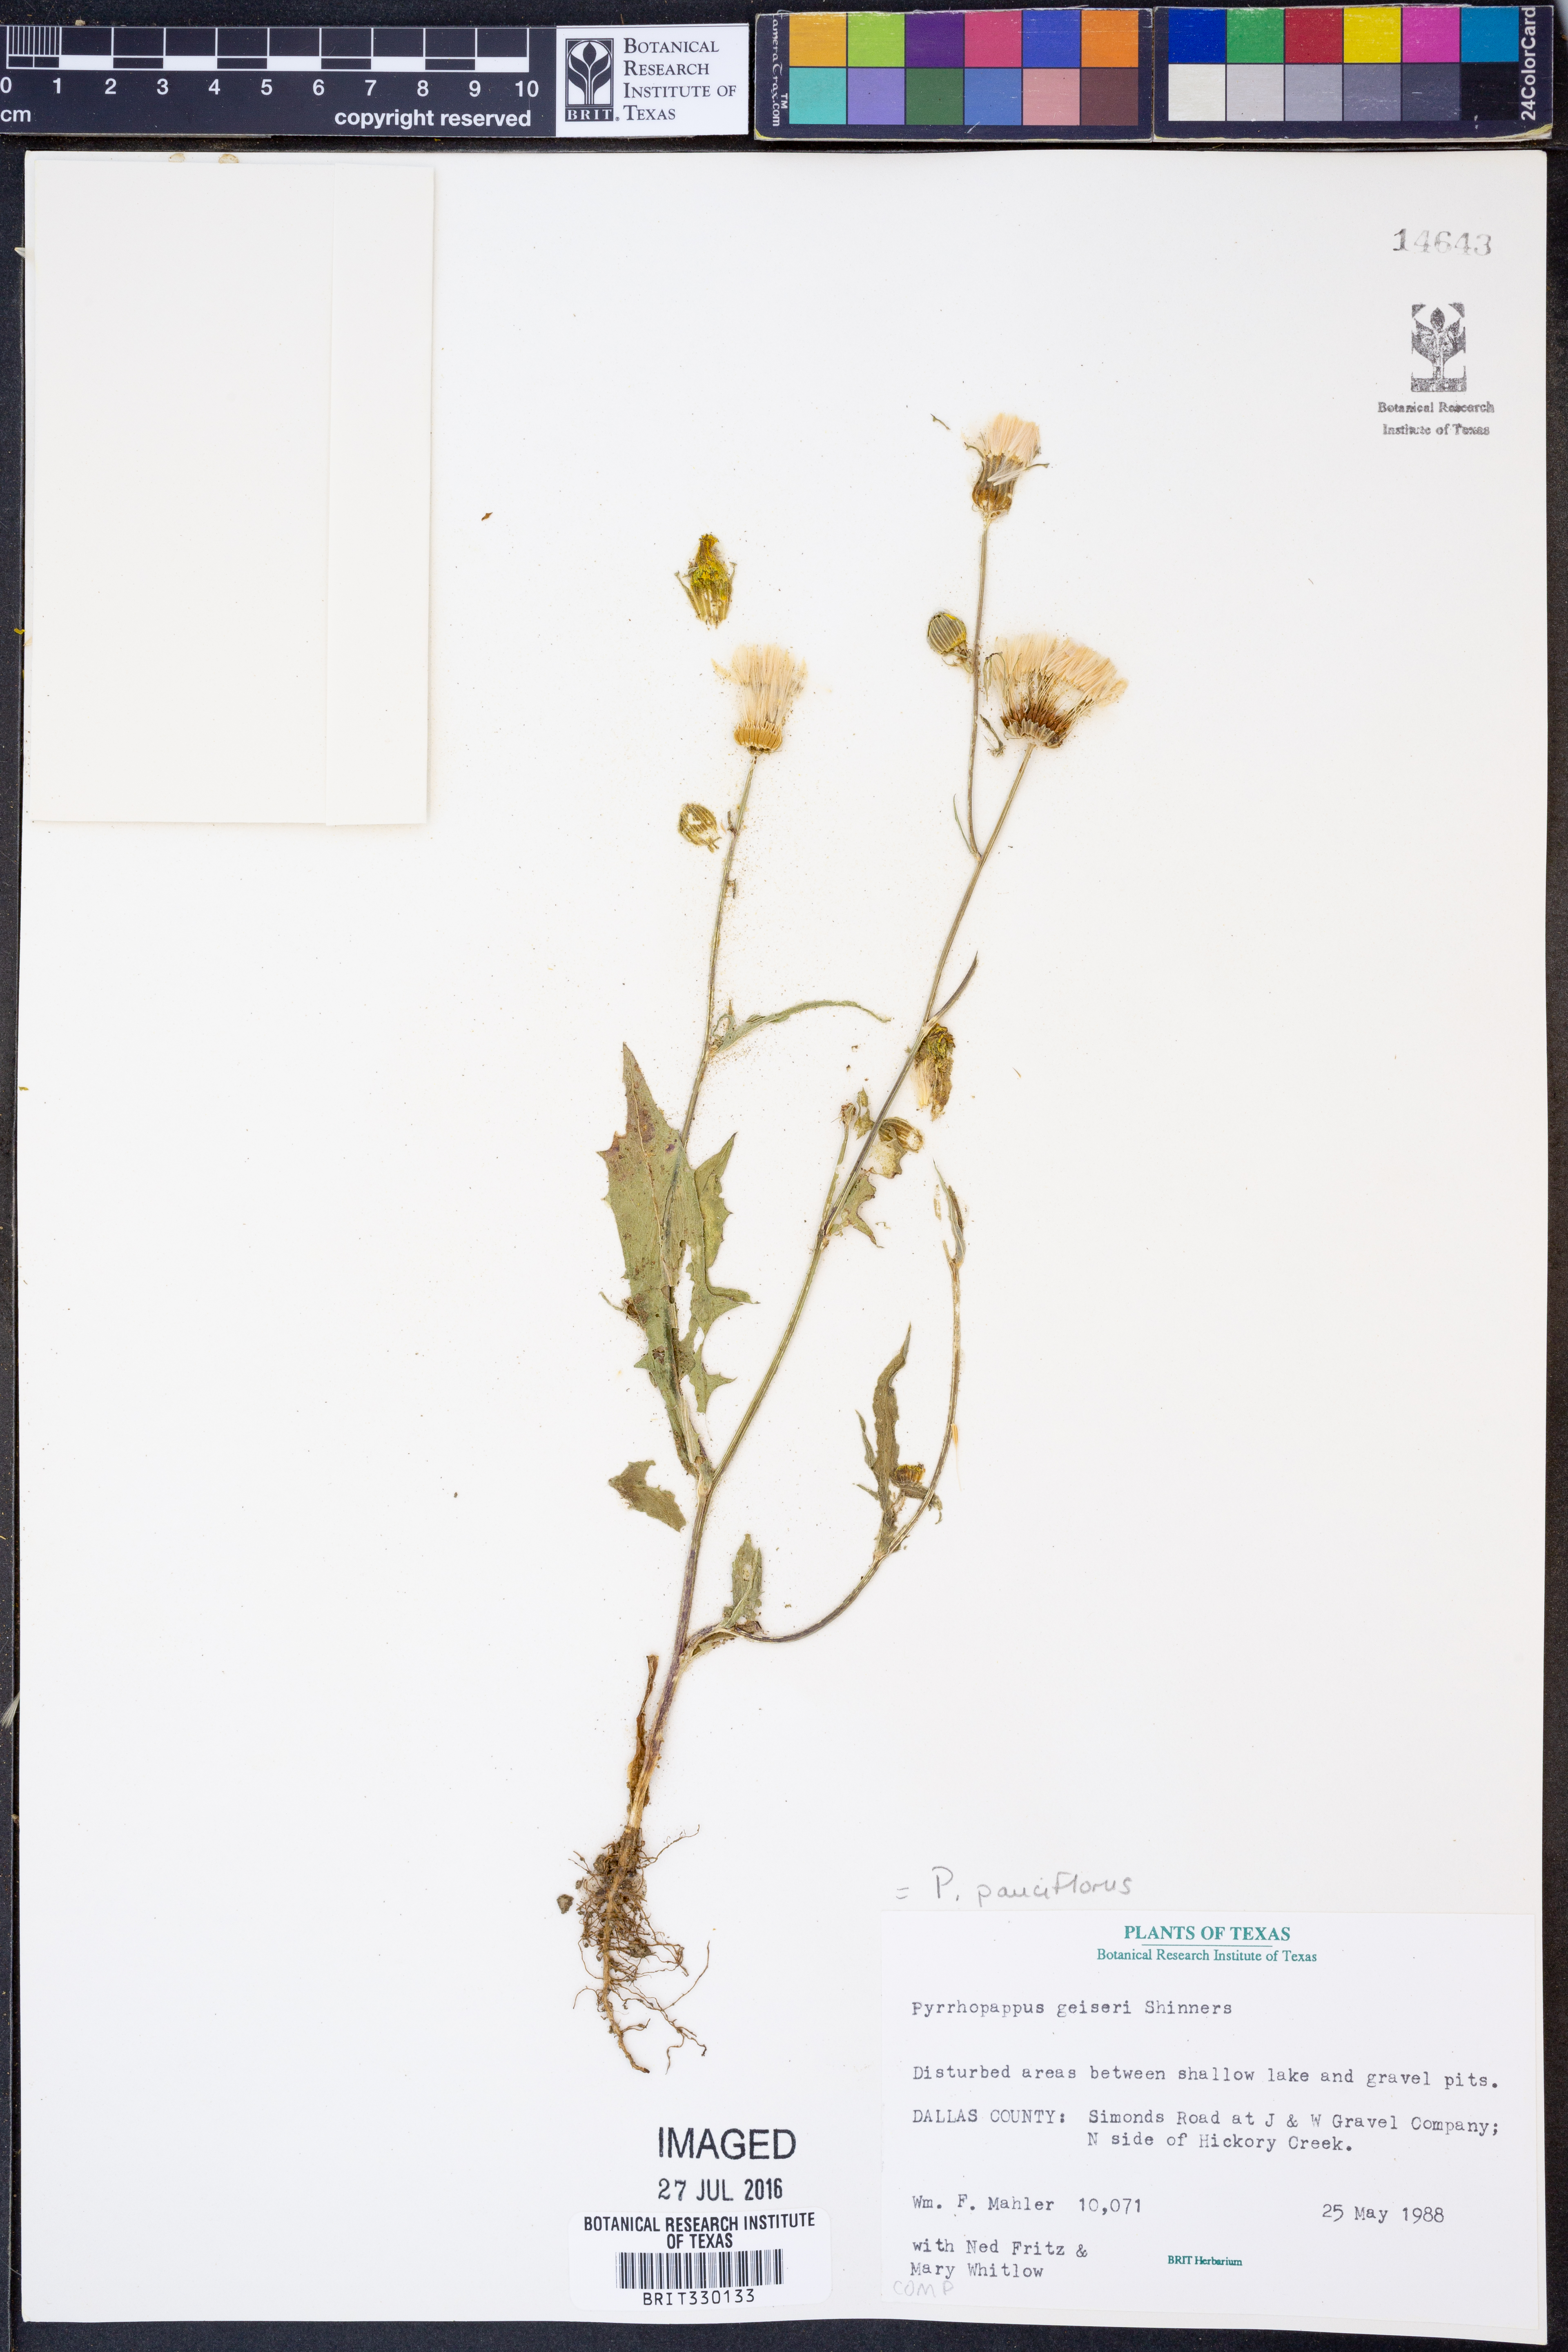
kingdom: Plantae
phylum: Tracheophyta
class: Magnoliopsida
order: Asterales
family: Asteraceae
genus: Pyrrhopappus
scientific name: Pyrrhopappus pauciflorus
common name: Texas false dandelion
